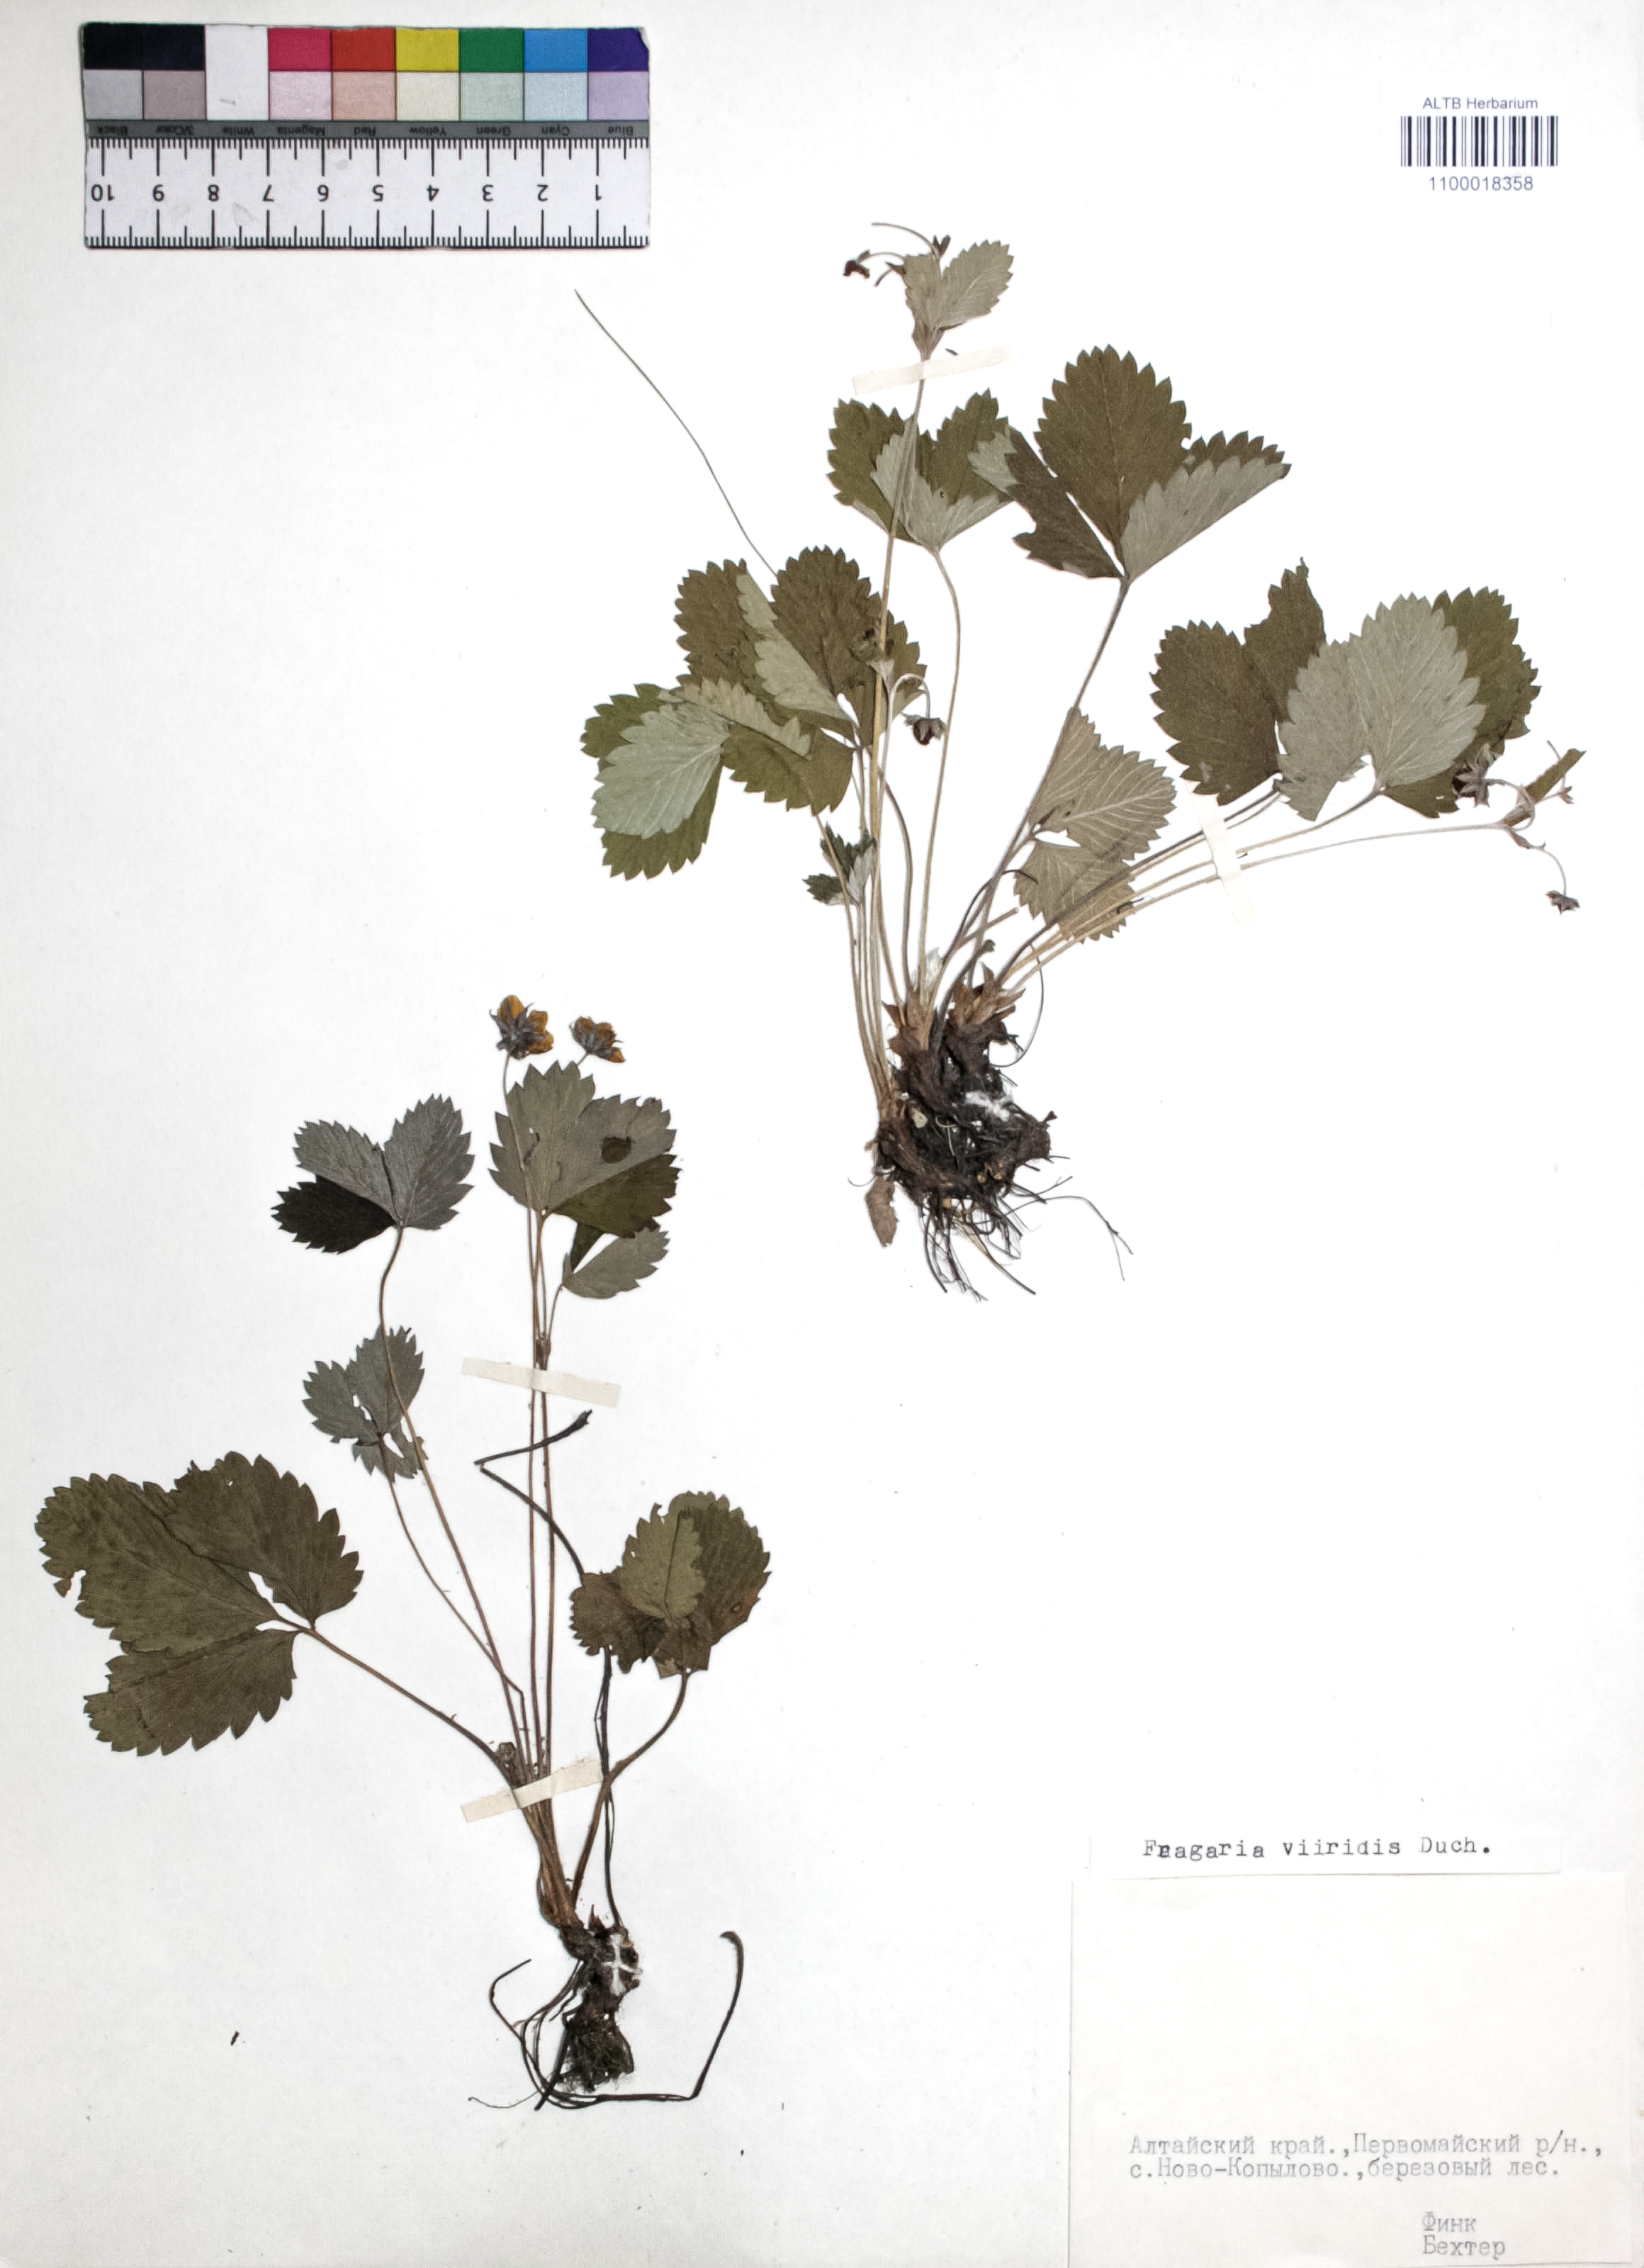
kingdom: Plantae
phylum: Tracheophyta
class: Magnoliopsida
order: Rosales
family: Rosaceae
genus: Fragaria
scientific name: Fragaria viridis
